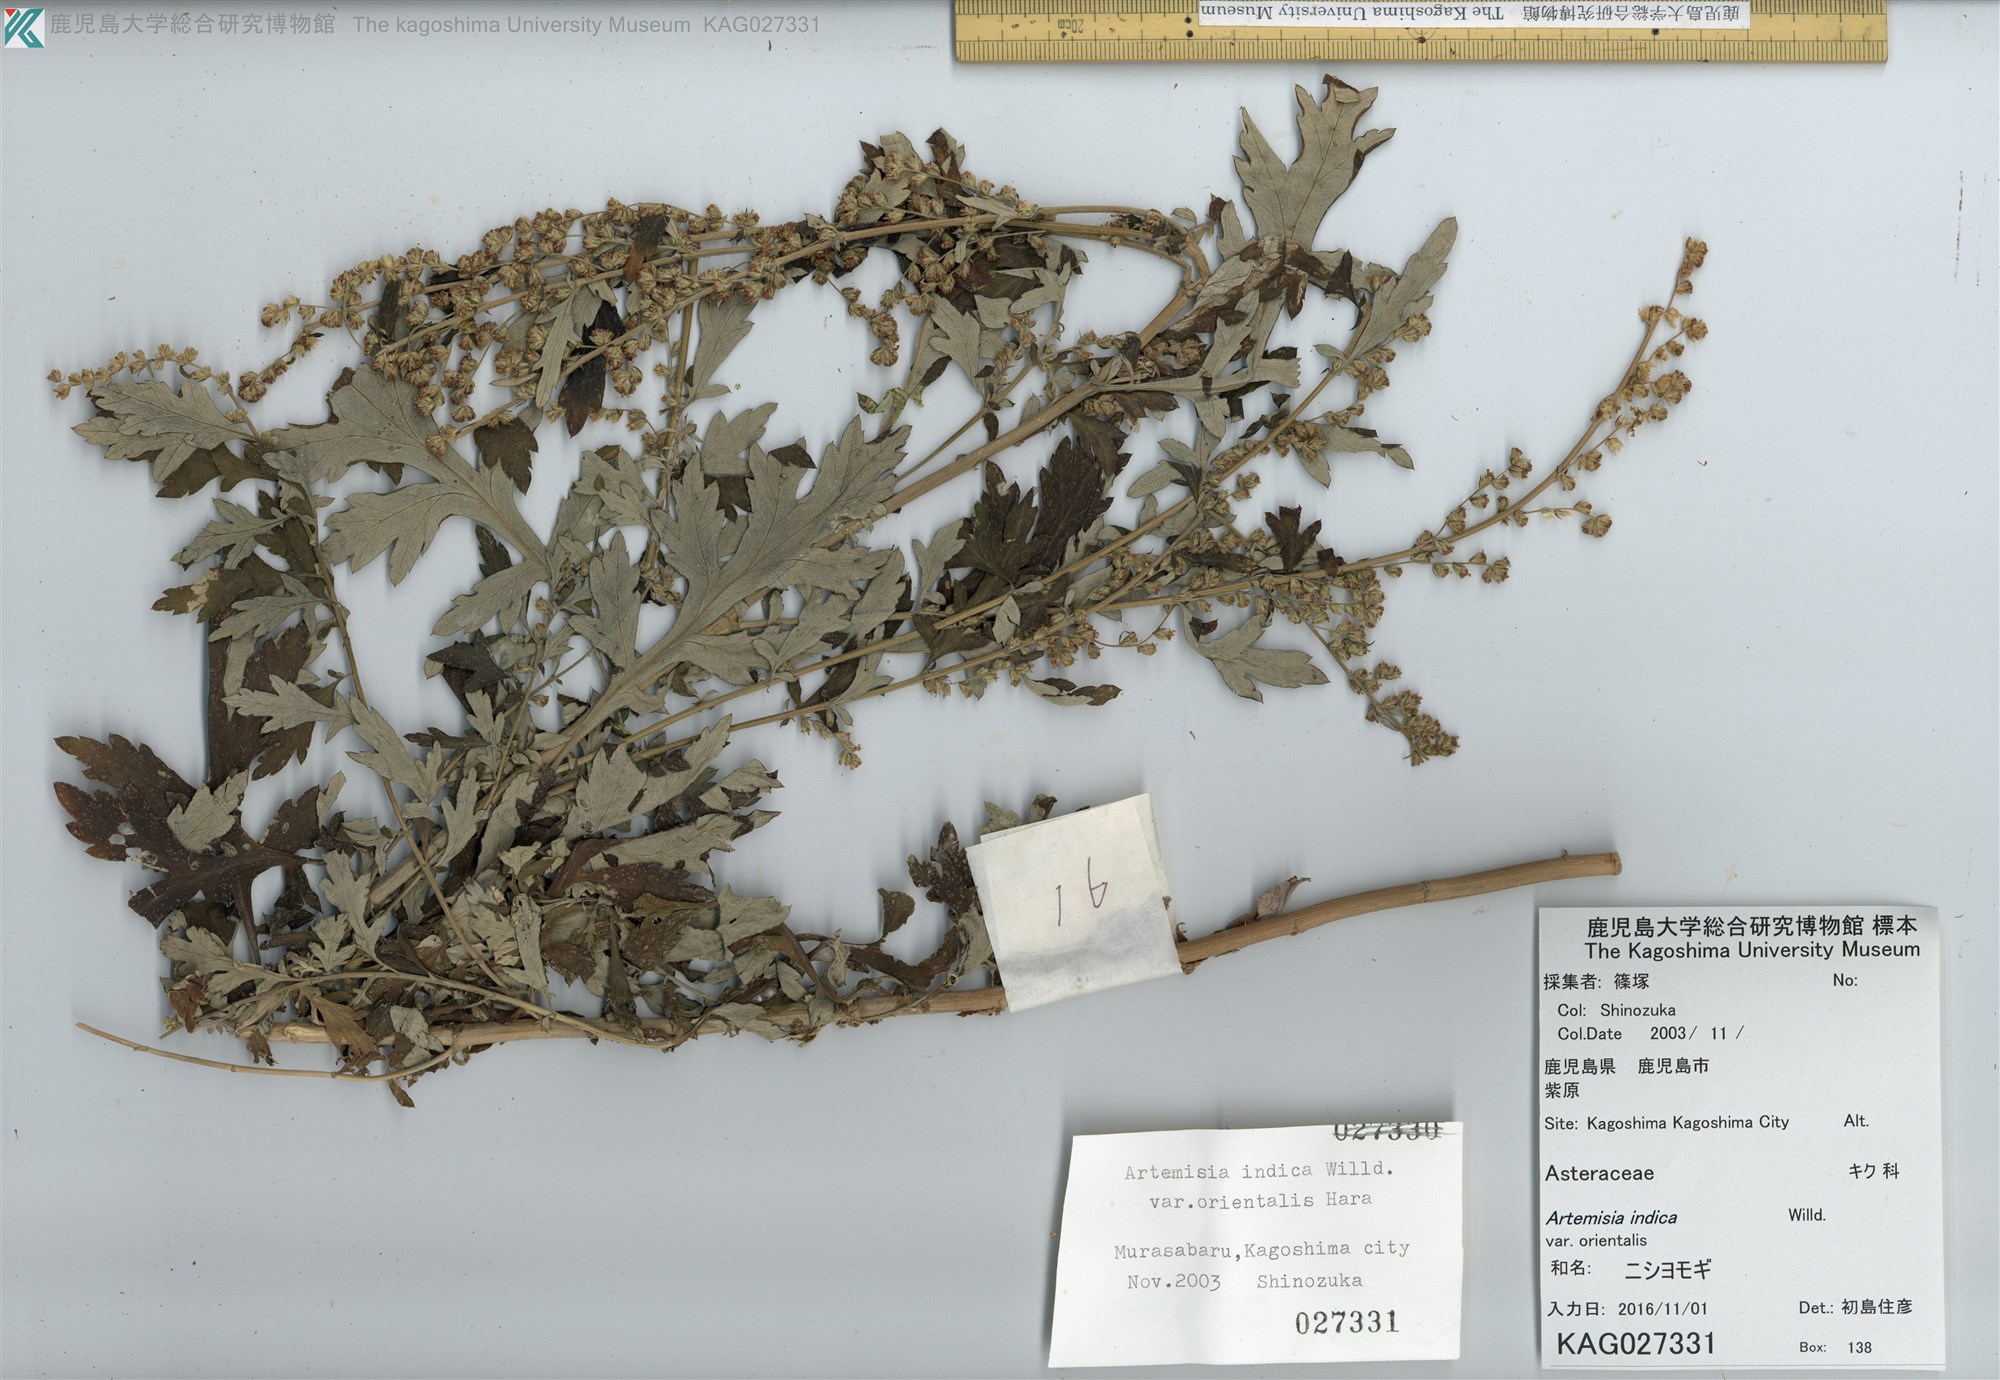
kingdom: Plantae
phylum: Tracheophyta
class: Magnoliopsida
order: Asterales
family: Asteraceae
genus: Artemisia
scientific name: Artemisia indica
